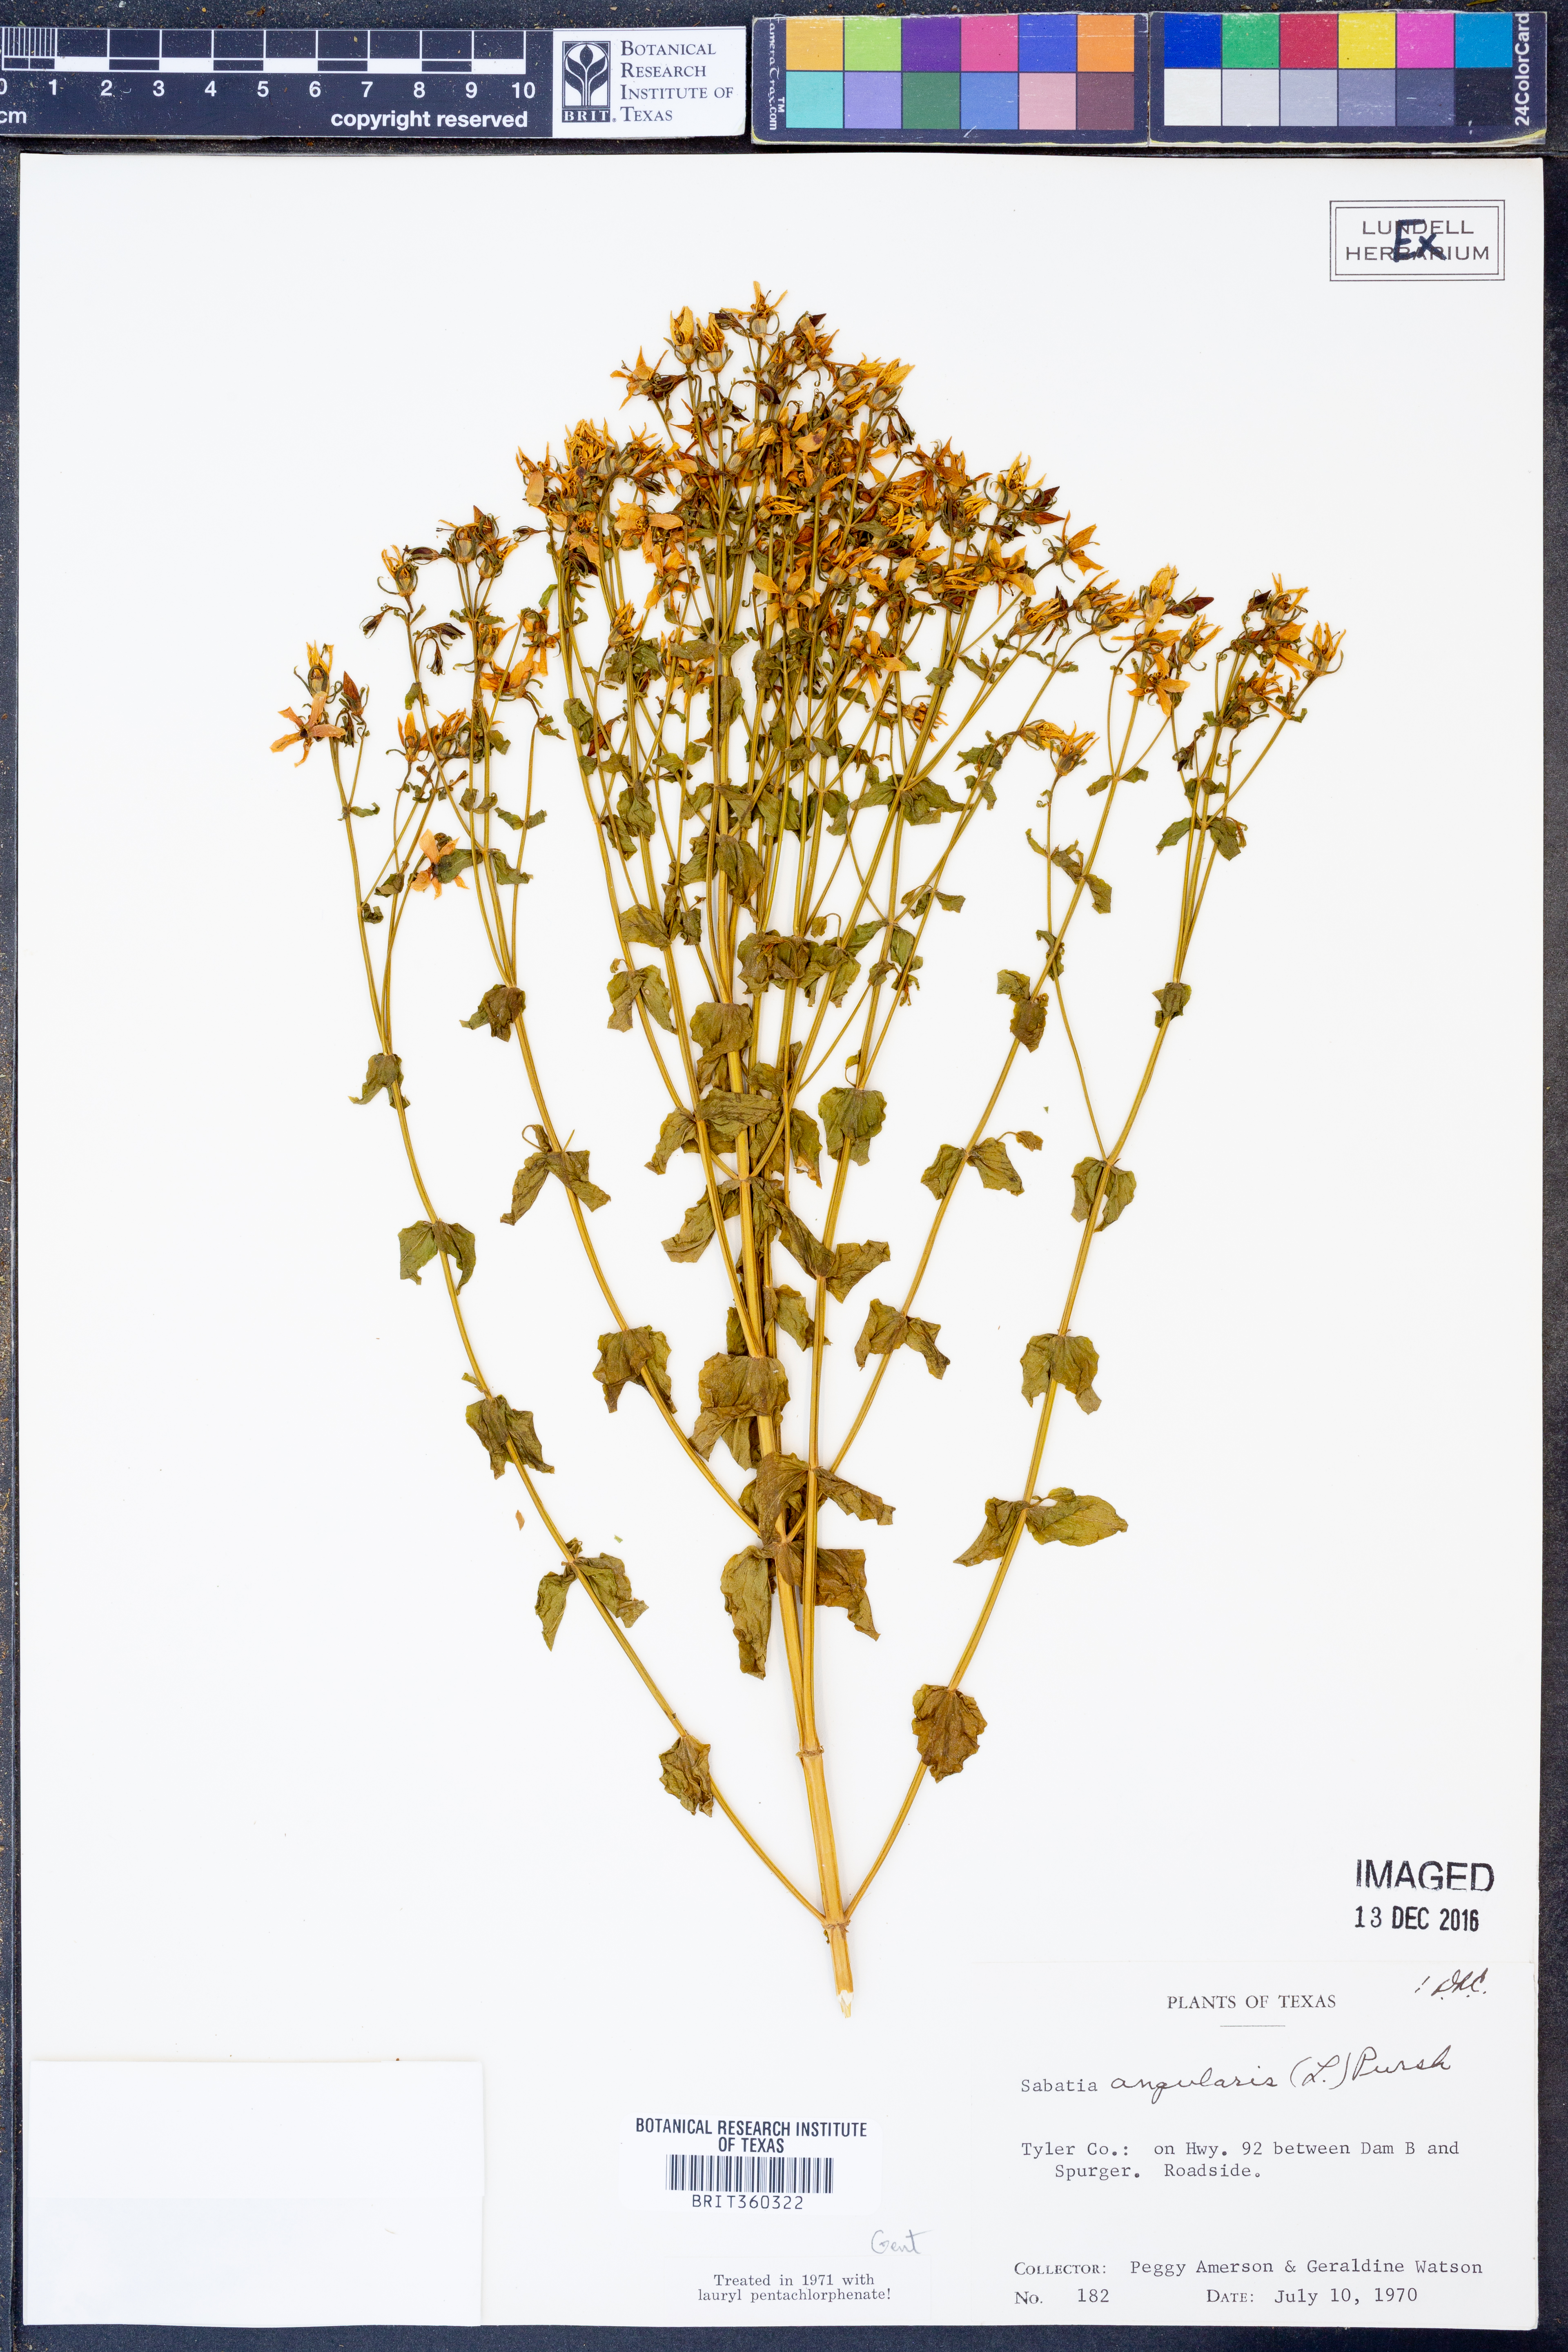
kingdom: Plantae
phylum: Tracheophyta
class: Magnoliopsida
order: Gentianales
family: Gentianaceae
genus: Sabatia
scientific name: Sabatia angularis
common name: Rose-pink
